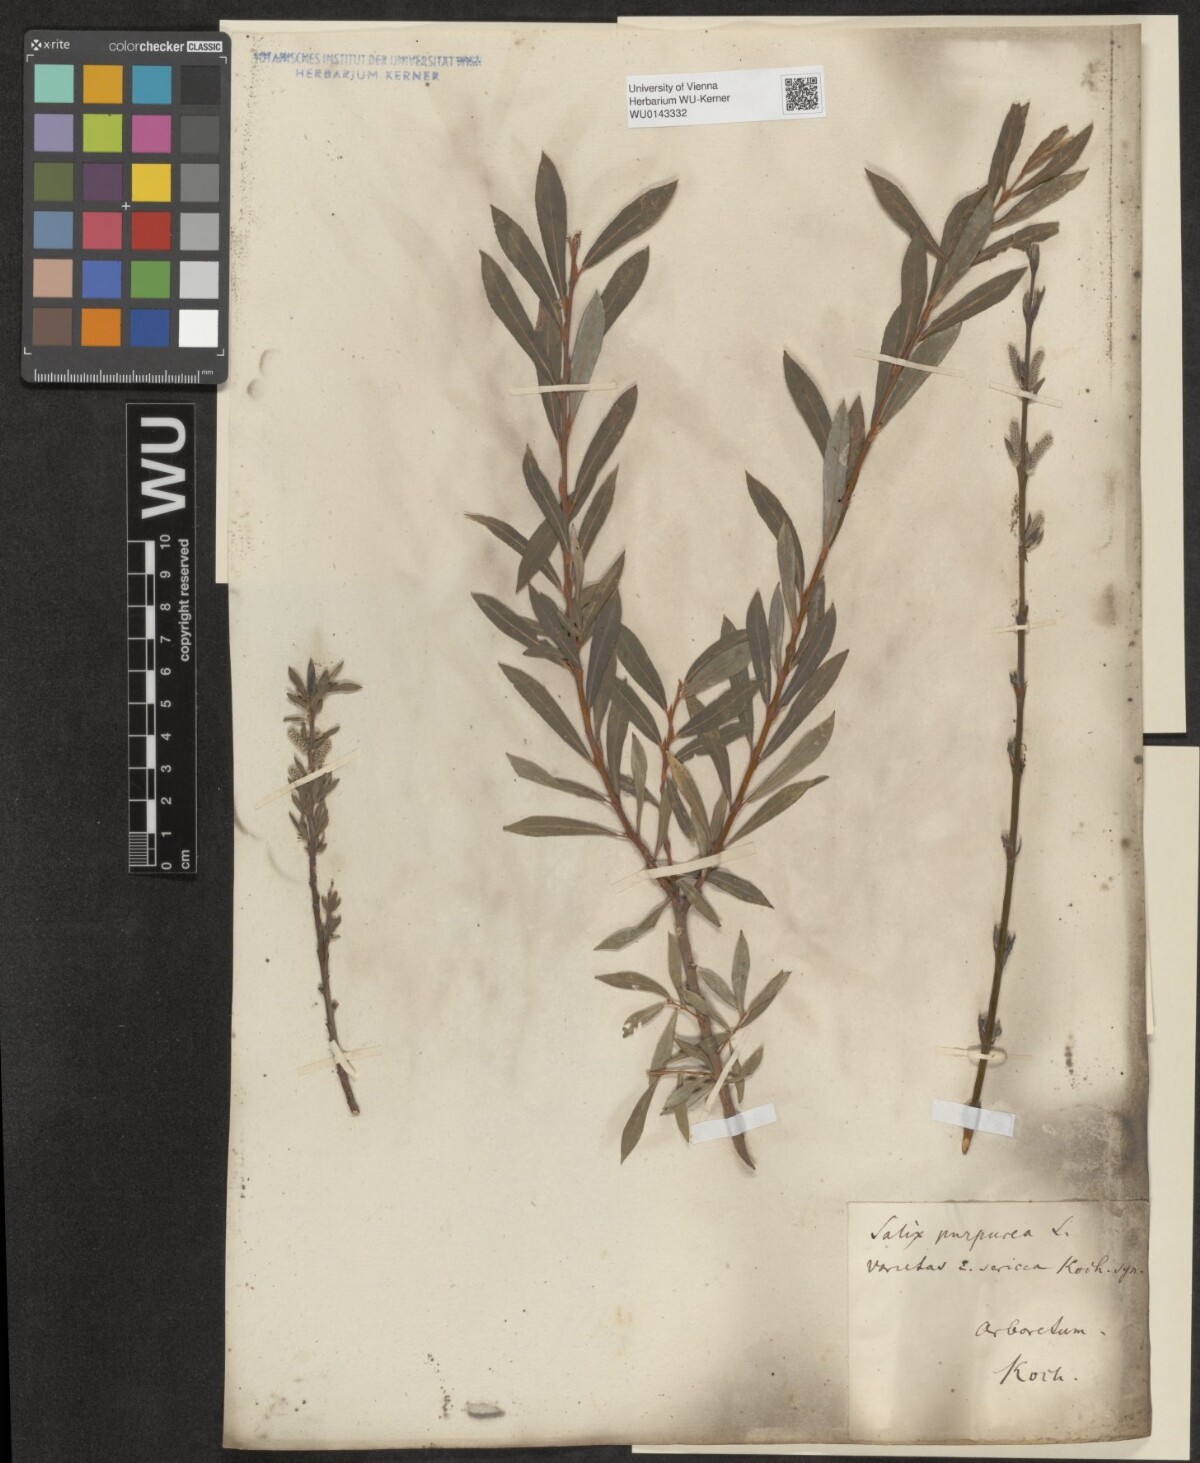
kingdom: Plantae
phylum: Tracheophyta
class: Magnoliopsida
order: Malpighiales
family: Salicaceae
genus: Salix
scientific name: Salix purpurea
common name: Purple willow
